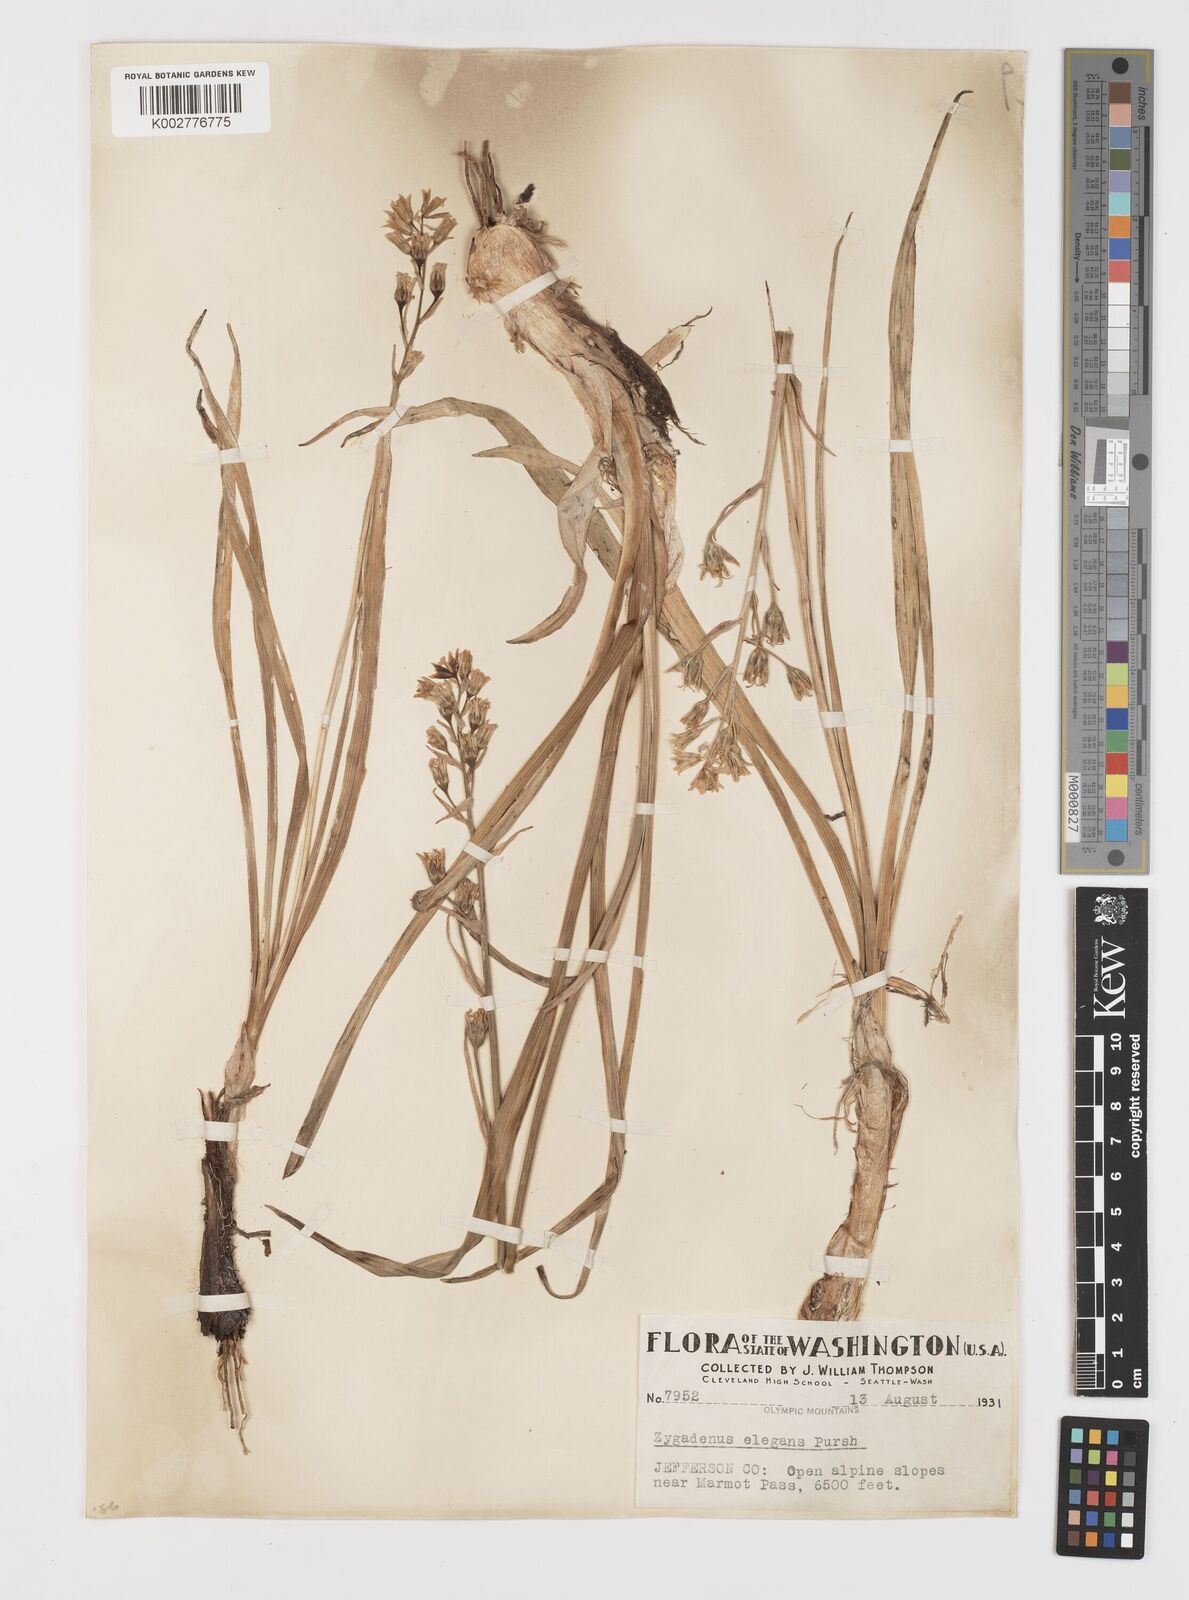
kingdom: Plantae
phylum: Tracheophyta
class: Liliopsida
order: Liliales
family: Melanthiaceae
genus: Anticlea
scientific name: Anticlea elegans
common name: Mountain death camas
